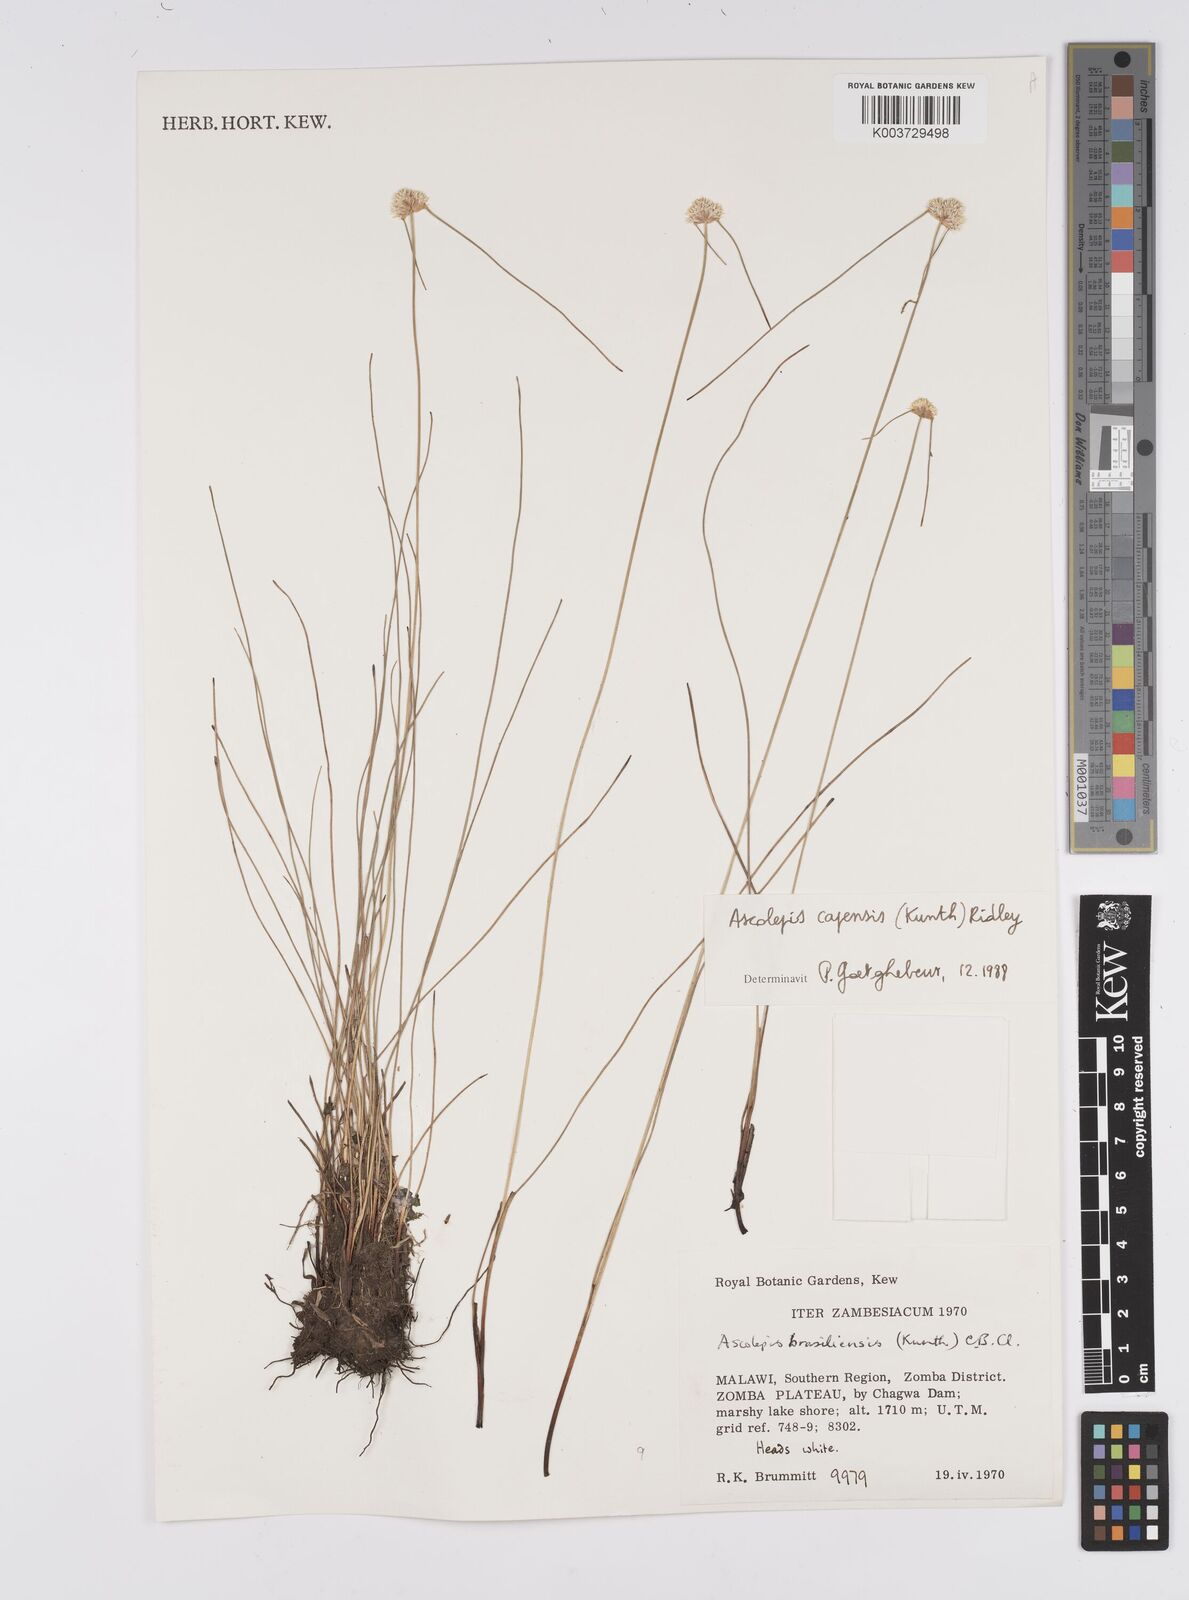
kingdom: Plantae
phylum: Tracheophyta
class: Liliopsida
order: Poales
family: Cyperaceae
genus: Cyperus
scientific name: Cyperus
